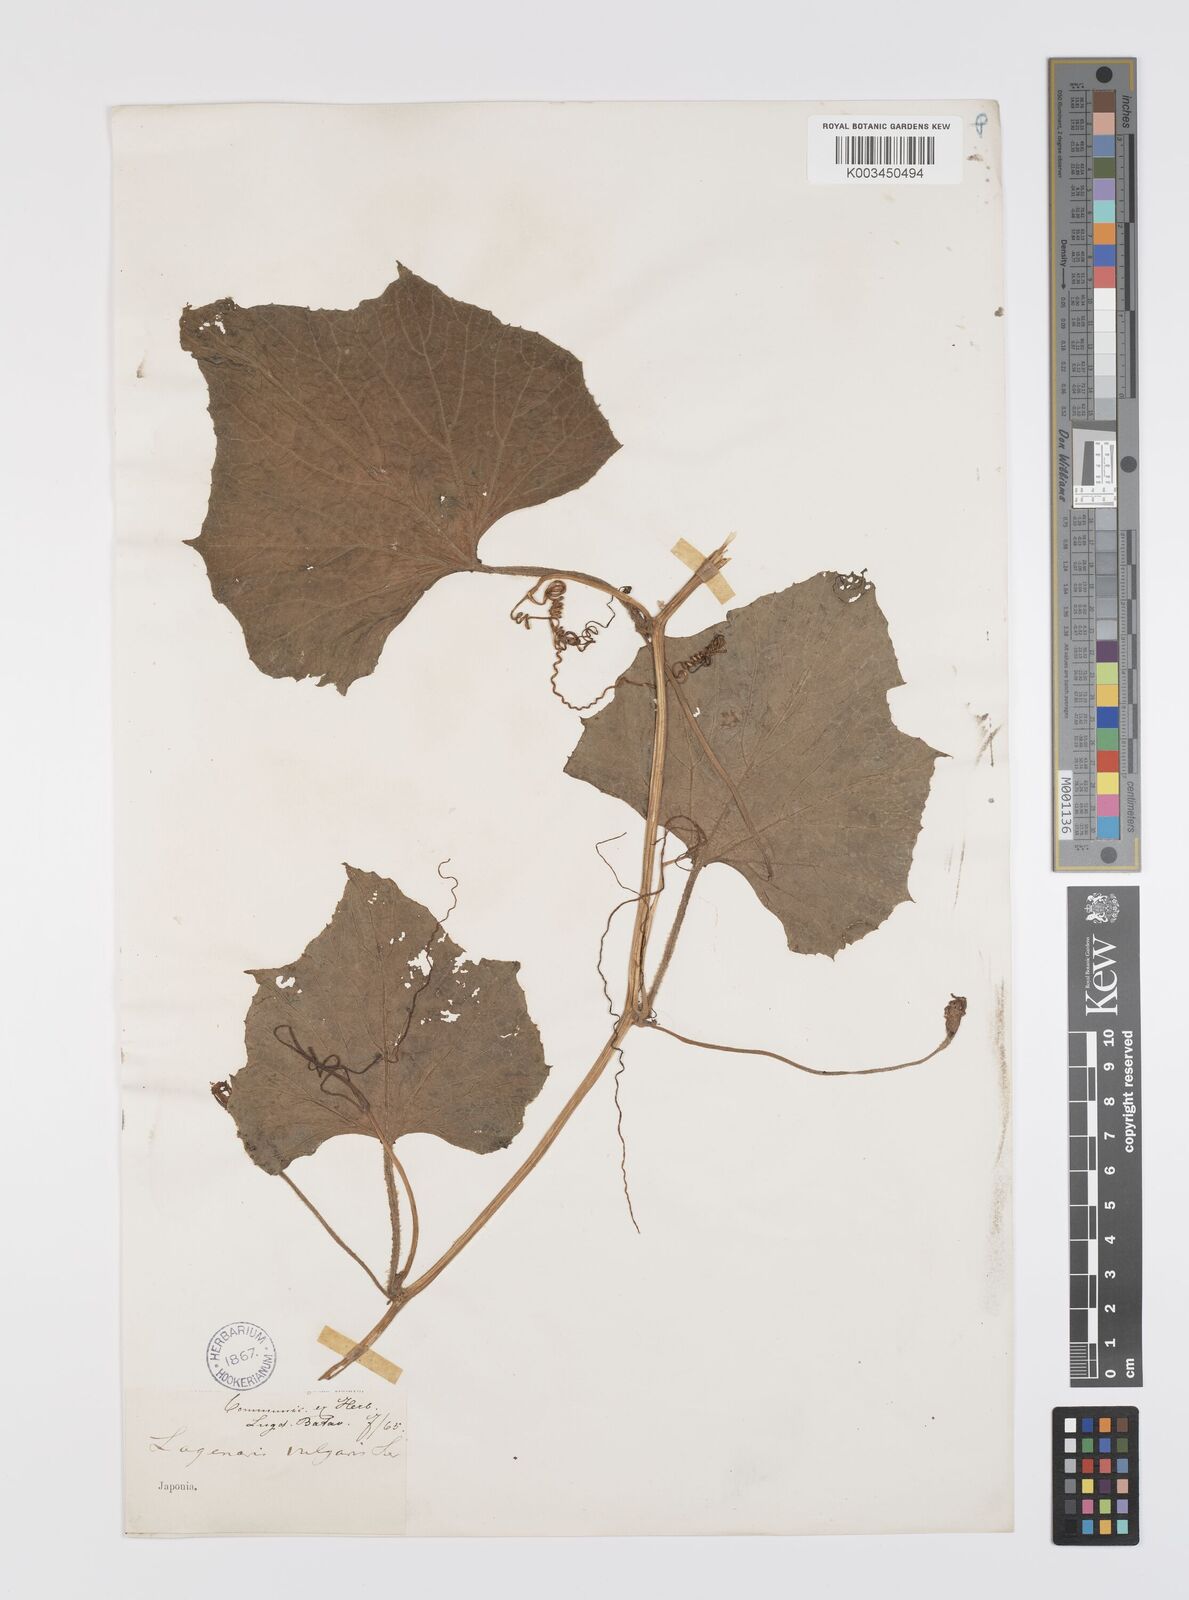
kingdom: Plantae
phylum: Tracheophyta
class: Magnoliopsida
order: Cucurbitales
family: Cucurbitaceae
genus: Lagenaria
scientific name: Lagenaria siceraria
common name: Bottle gourd
